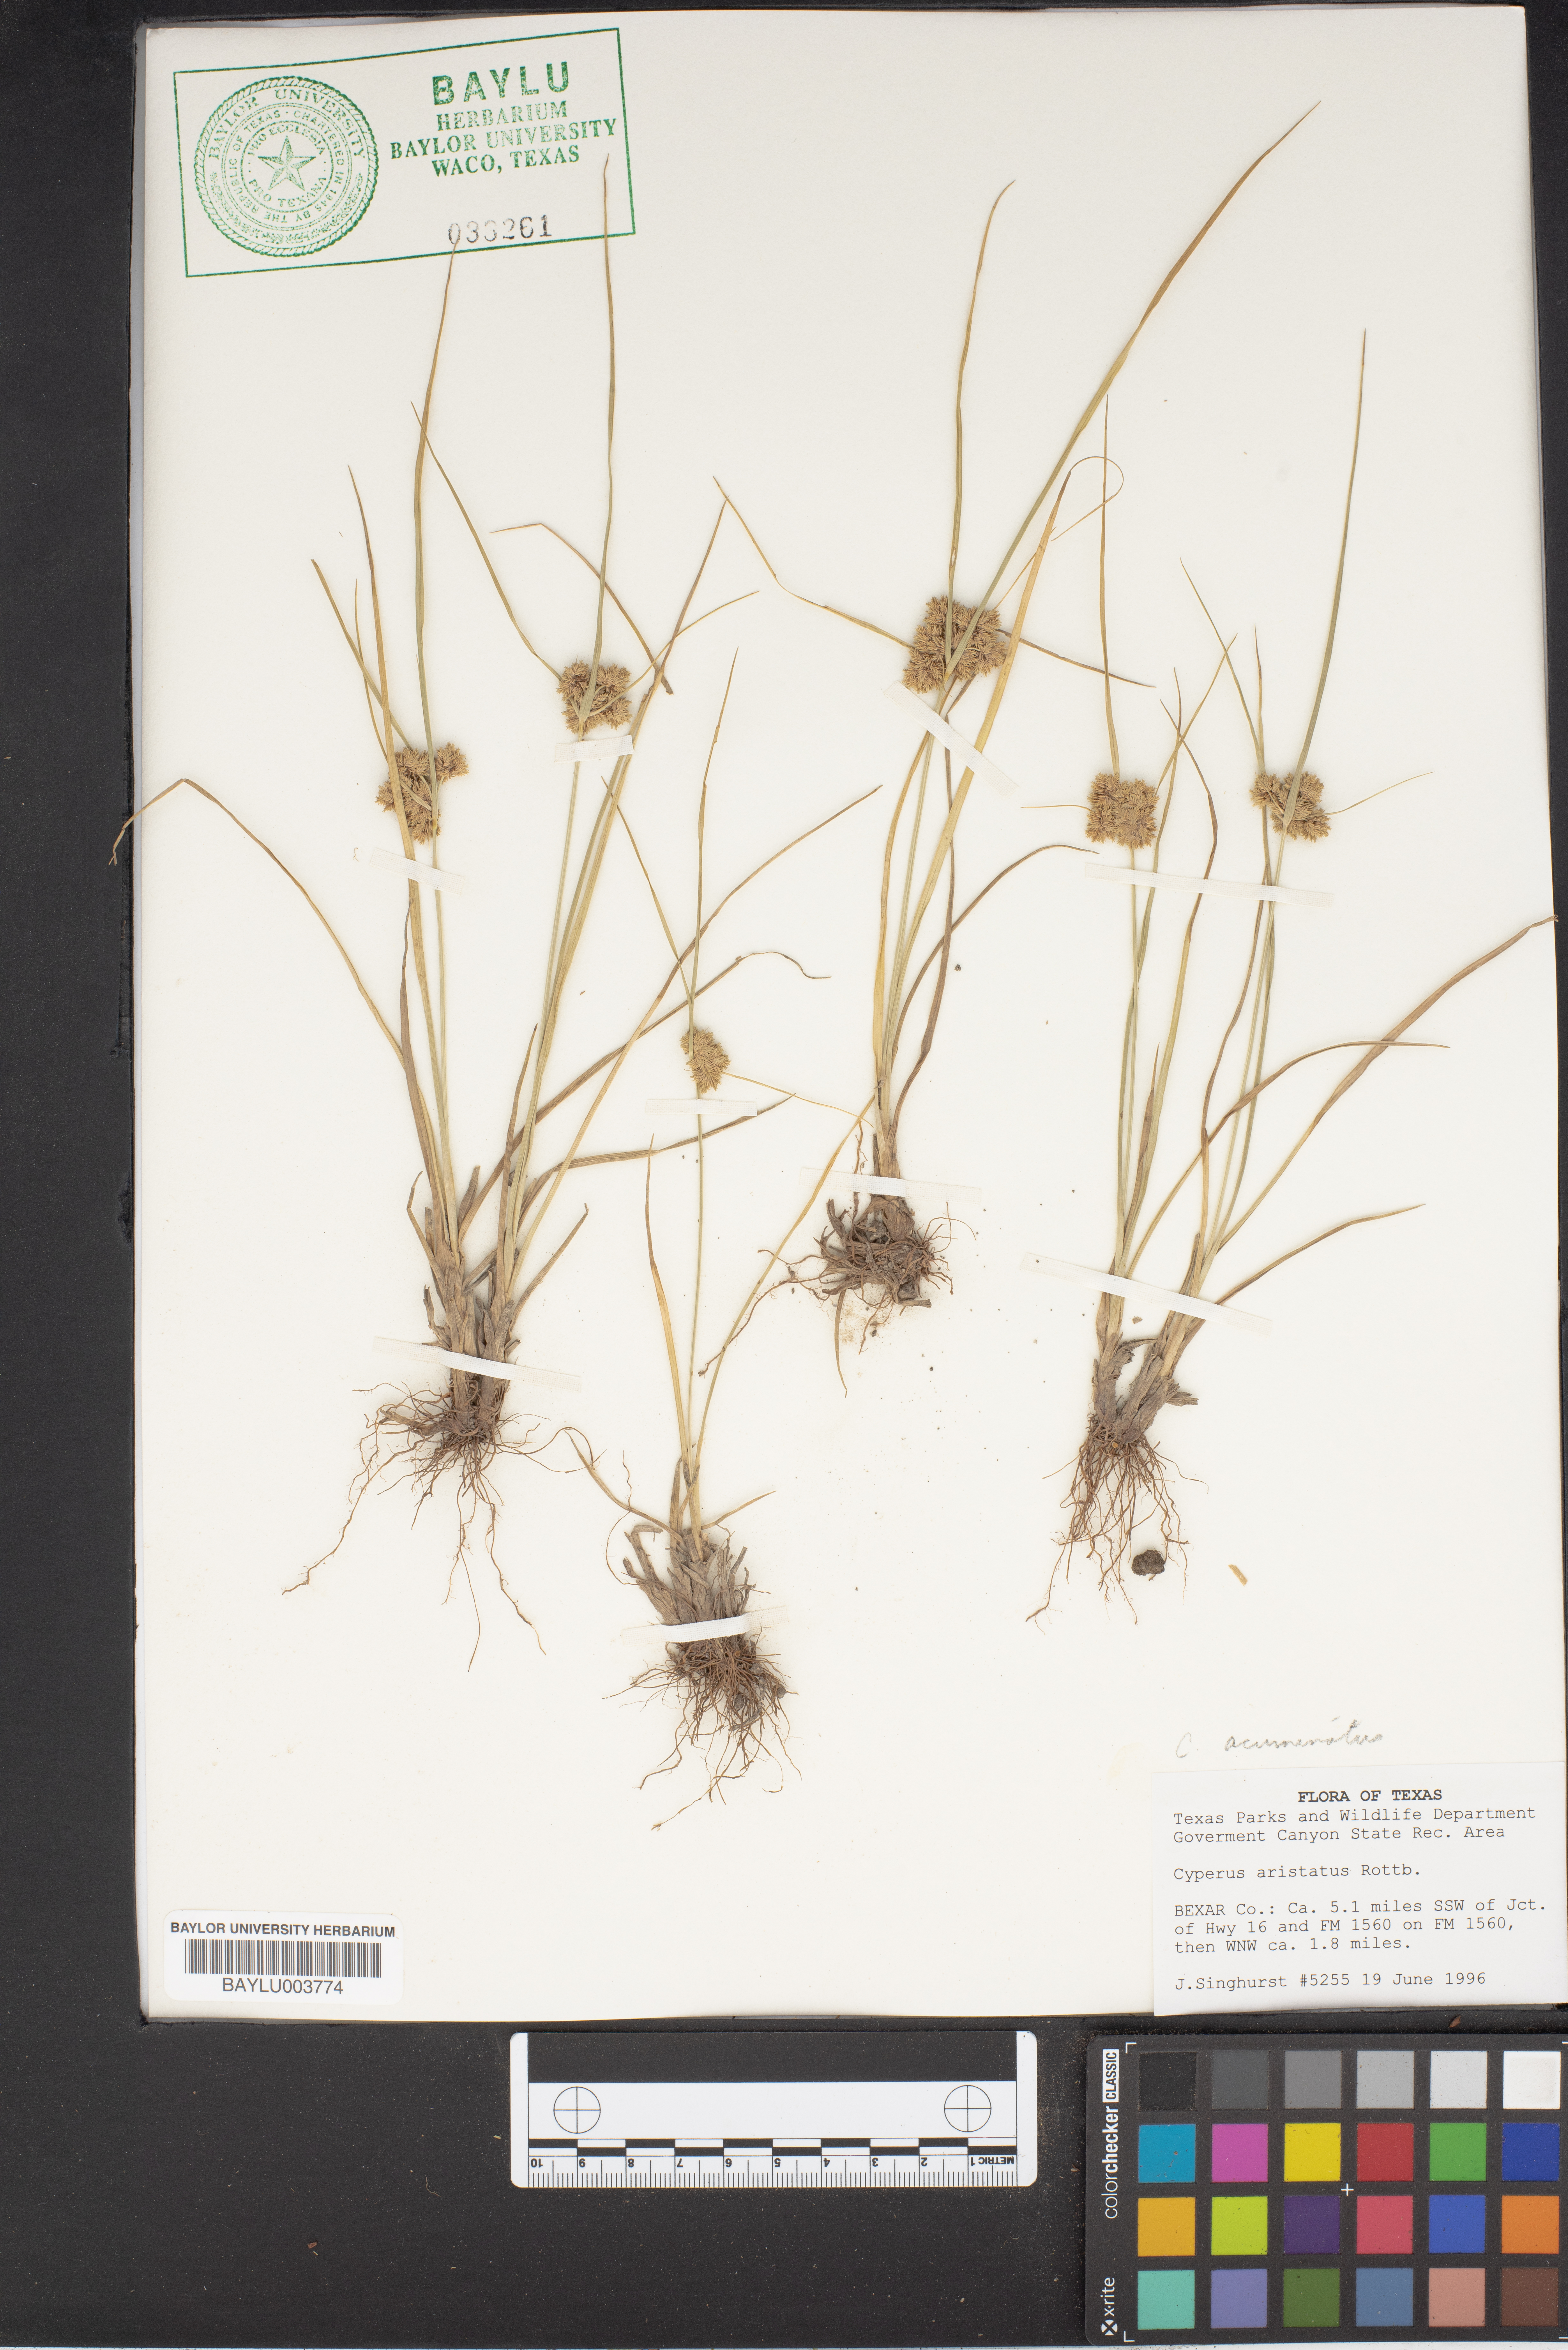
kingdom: Plantae
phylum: Tracheophyta
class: Liliopsida
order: Poales
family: Cyperaceae
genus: Cyperus
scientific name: Cyperus squarrosus
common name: Awned cyperus
